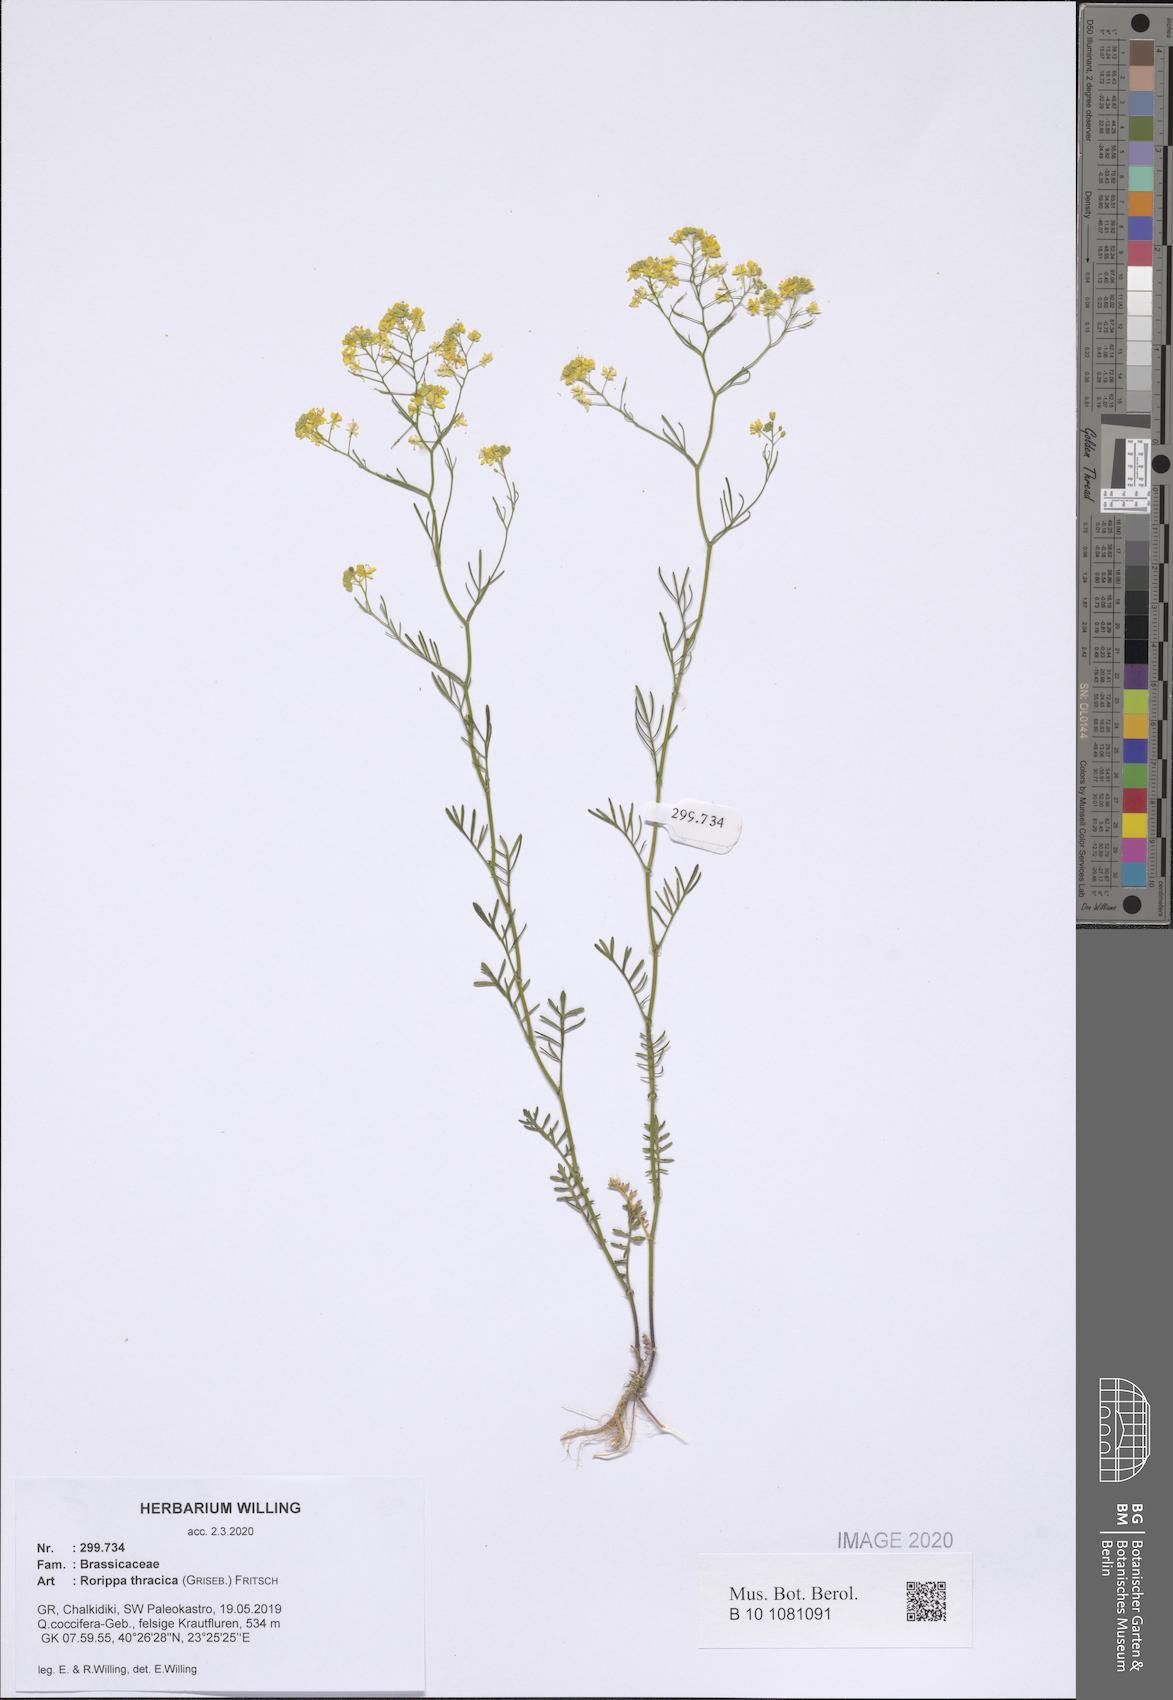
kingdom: Plantae
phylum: Tracheophyta
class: Magnoliopsida
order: Brassicales
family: Brassicaceae
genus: Rorippa
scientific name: Rorippa lippizensis
